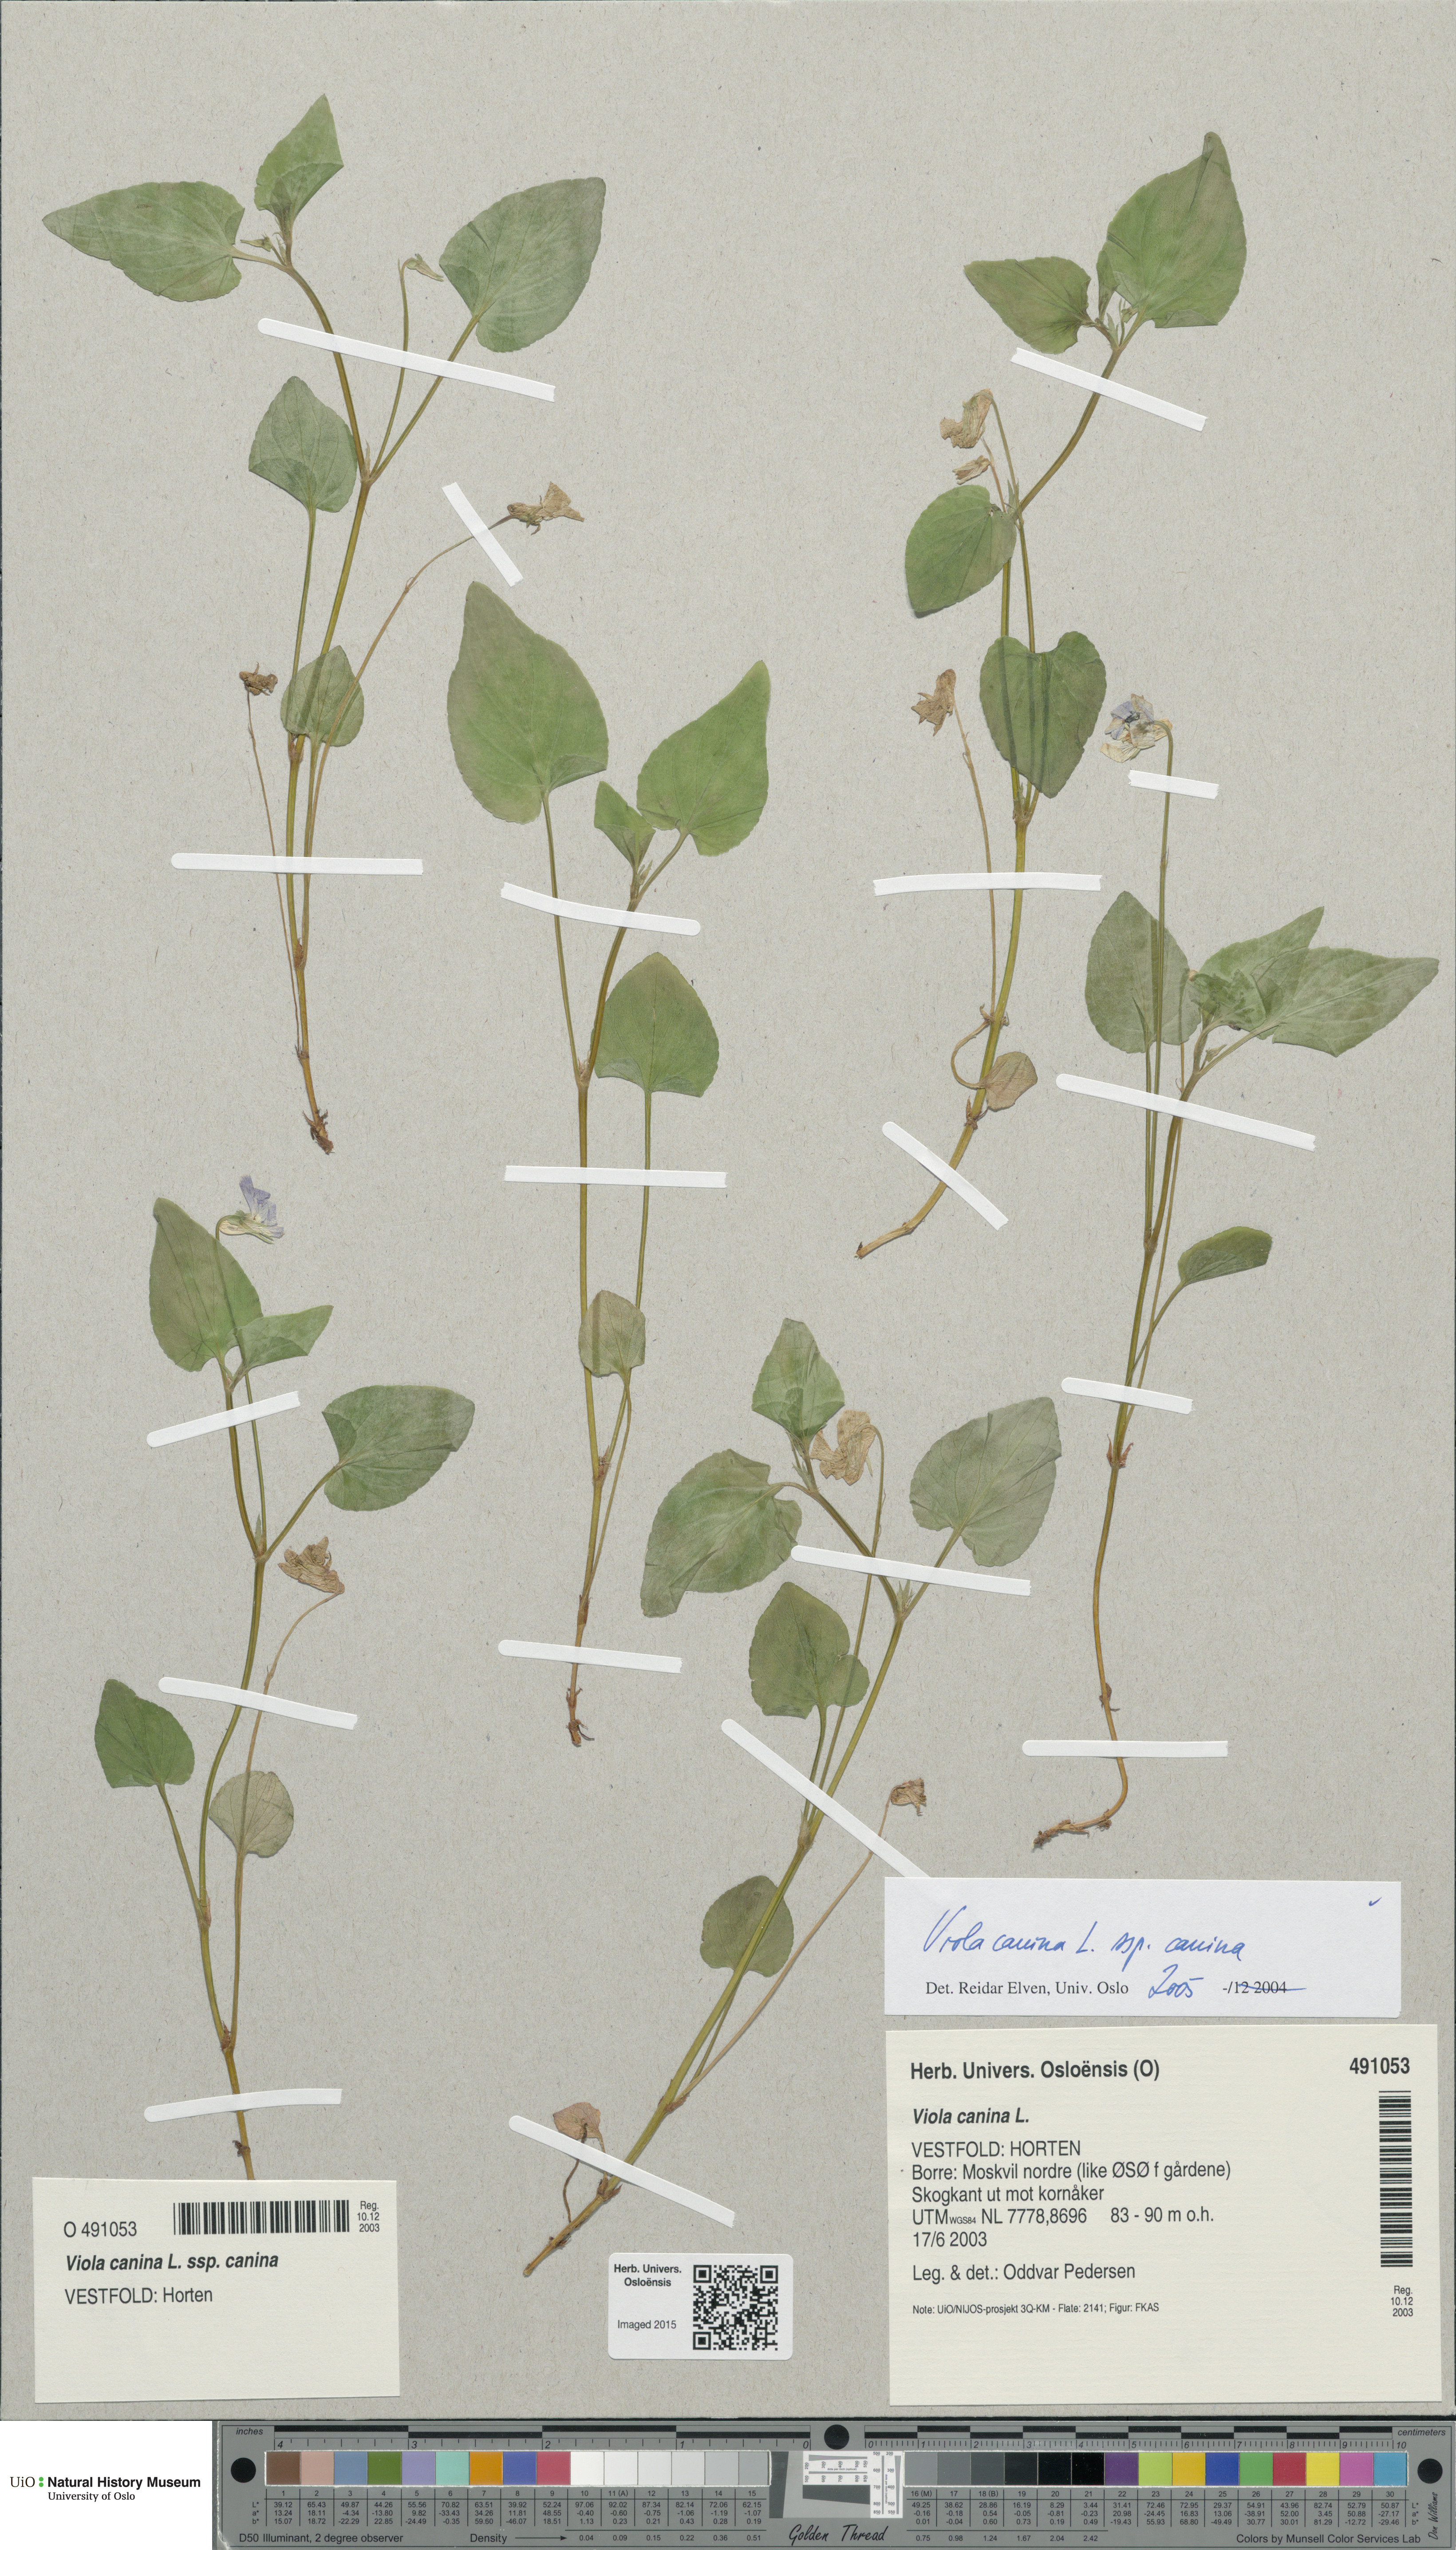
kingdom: Plantae
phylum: Tracheophyta
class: Magnoliopsida
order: Malpighiales
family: Violaceae
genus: Viola
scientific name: Viola canina
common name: Heath dog-violet
